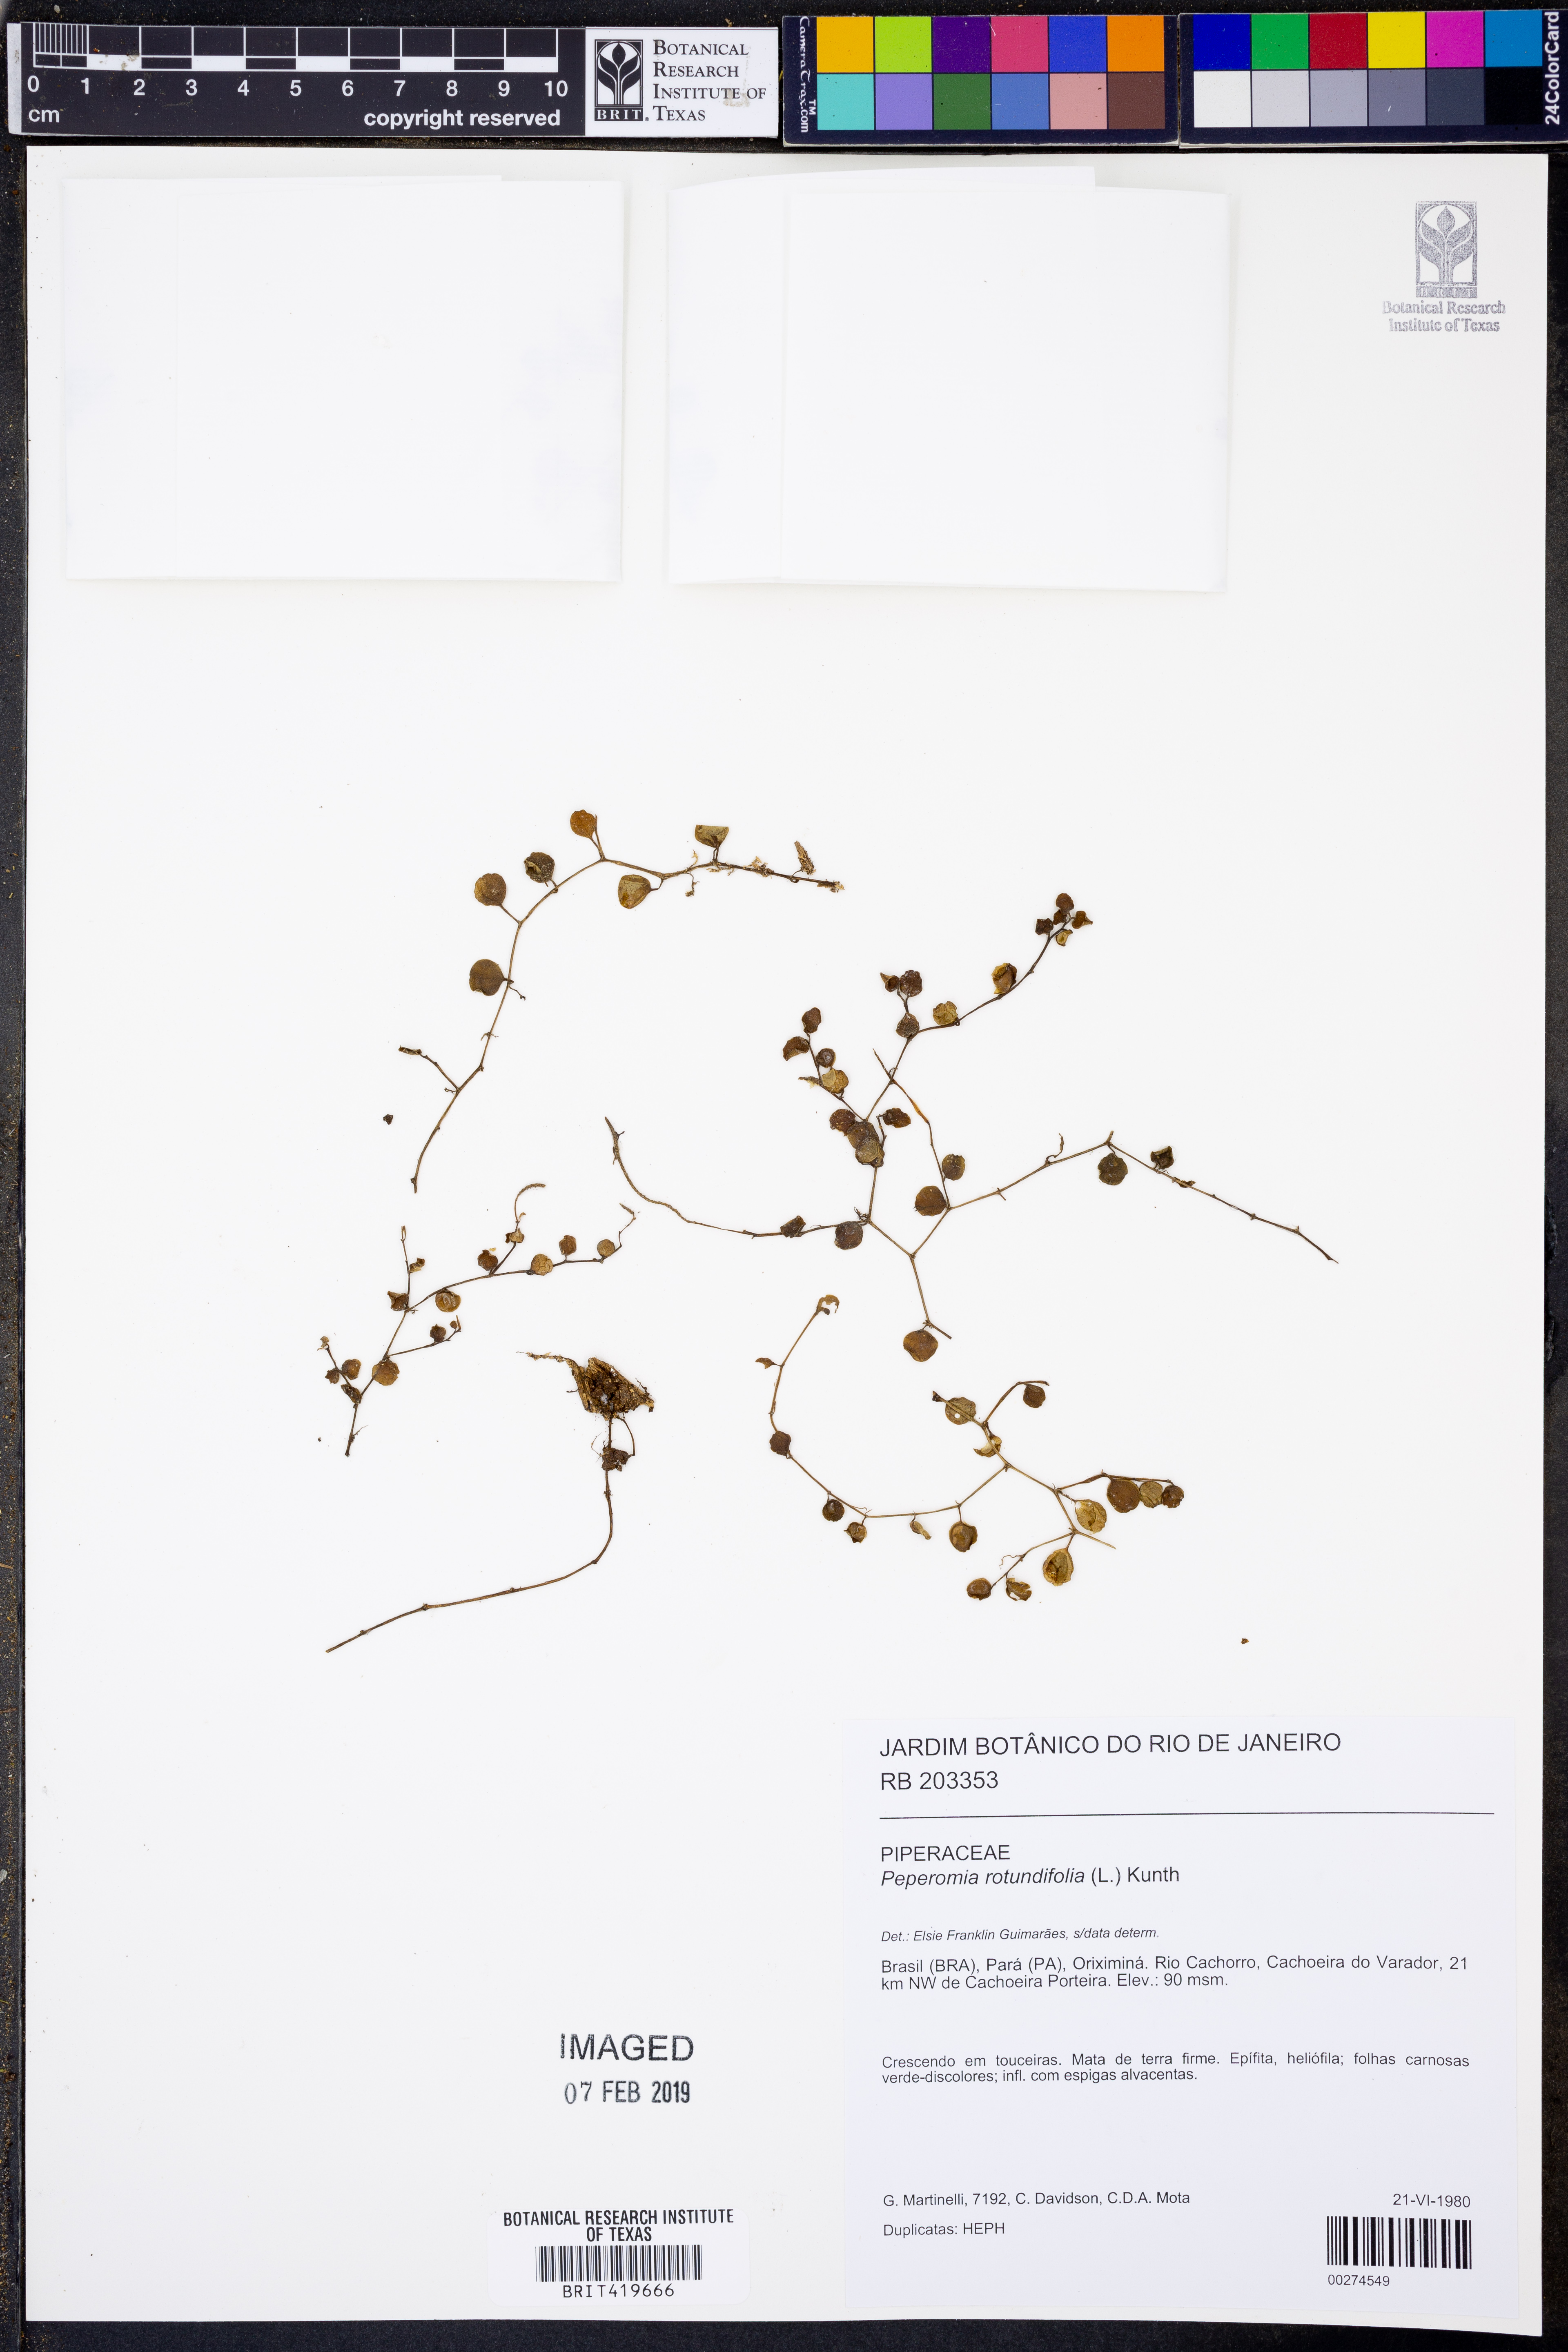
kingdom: Plantae
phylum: Tracheophyta
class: Magnoliopsida
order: Piperales
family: Piperaceae
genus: Peperomia
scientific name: Peperomia rotundifolia
